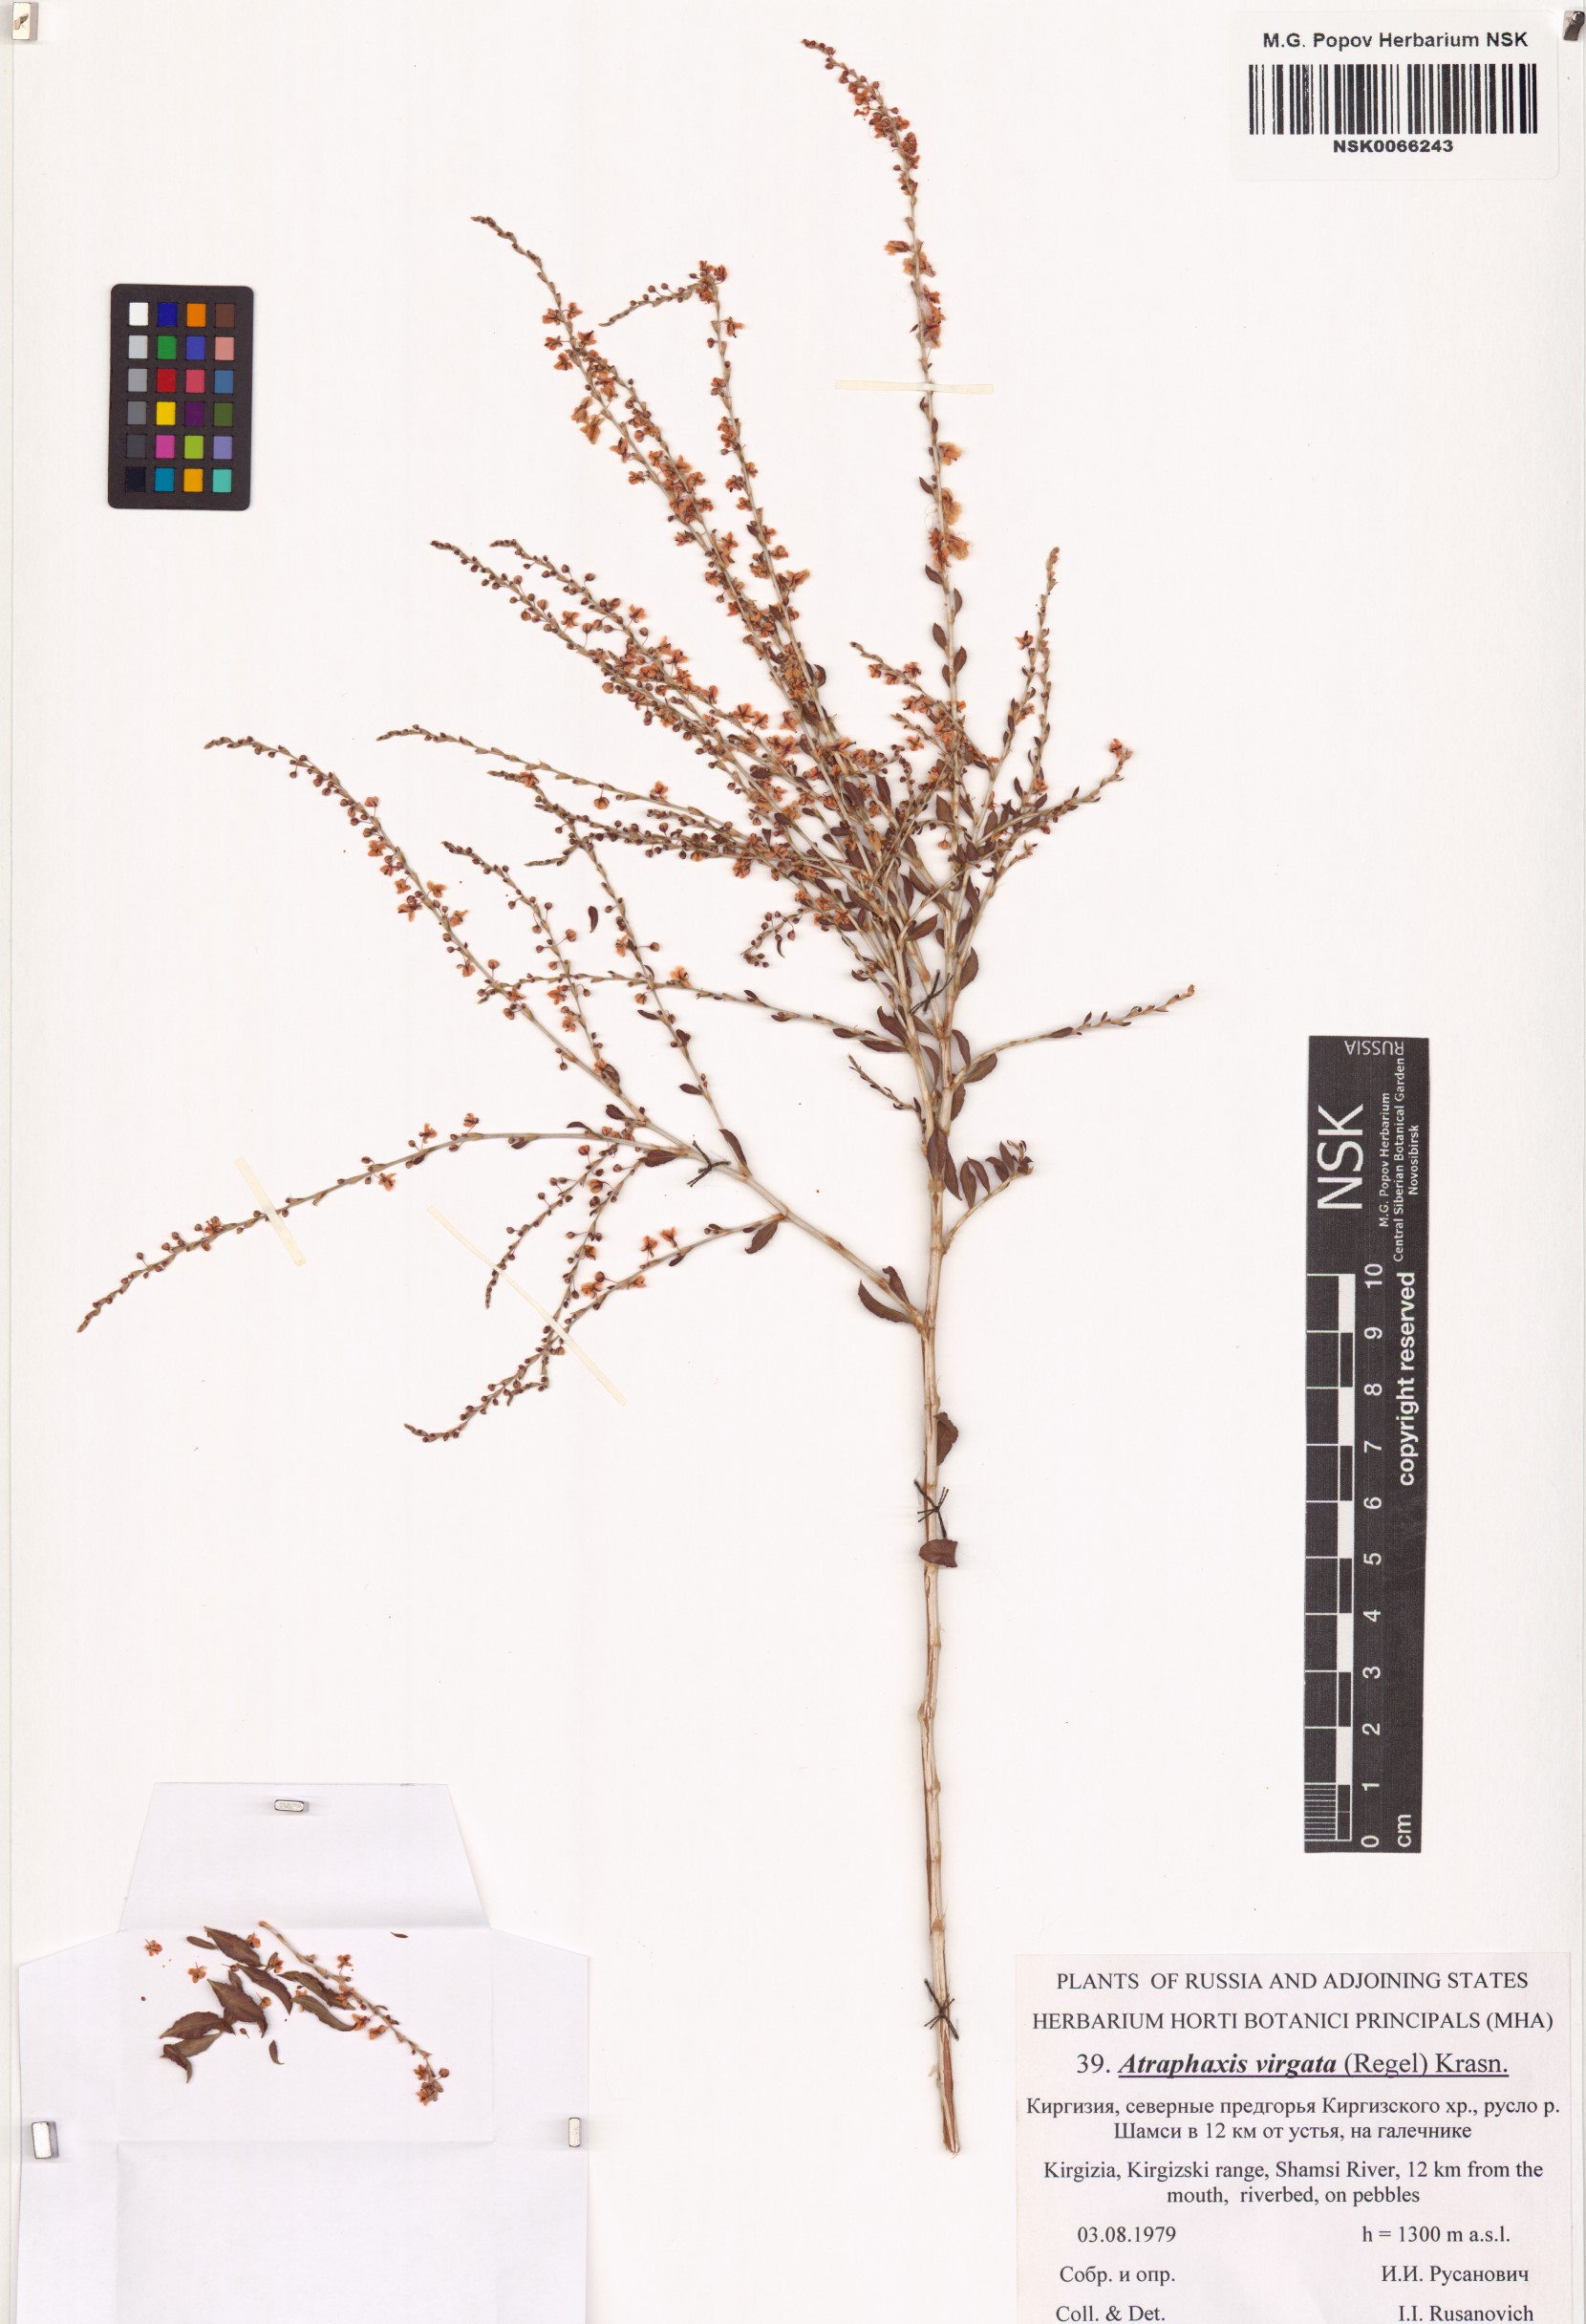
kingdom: Plantae
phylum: Tracheophyta
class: Magnoliopsida
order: Caryophyllales
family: Polygonaceae
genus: Atraphaxis
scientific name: Atraphaxis virgata
